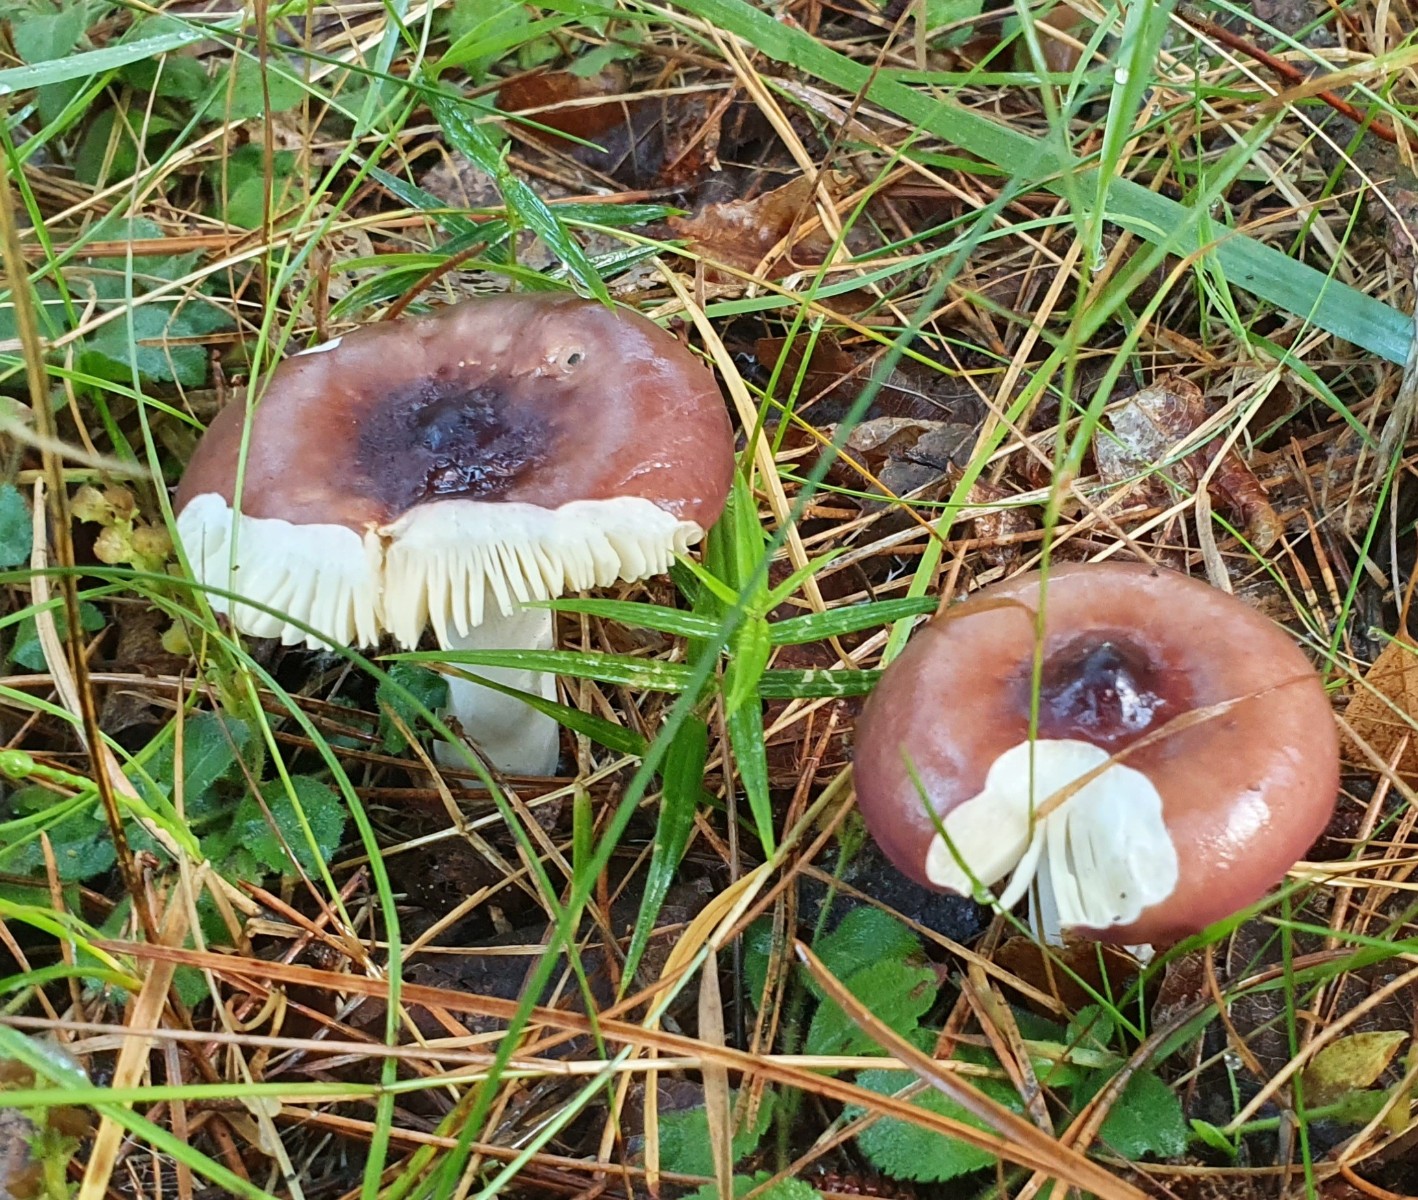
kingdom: Fungi
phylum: Basidiomycota
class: Agaricomycetes
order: Russulales
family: Russulaceae
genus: Russula
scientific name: Russula caerulea
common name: puklet skørhat
